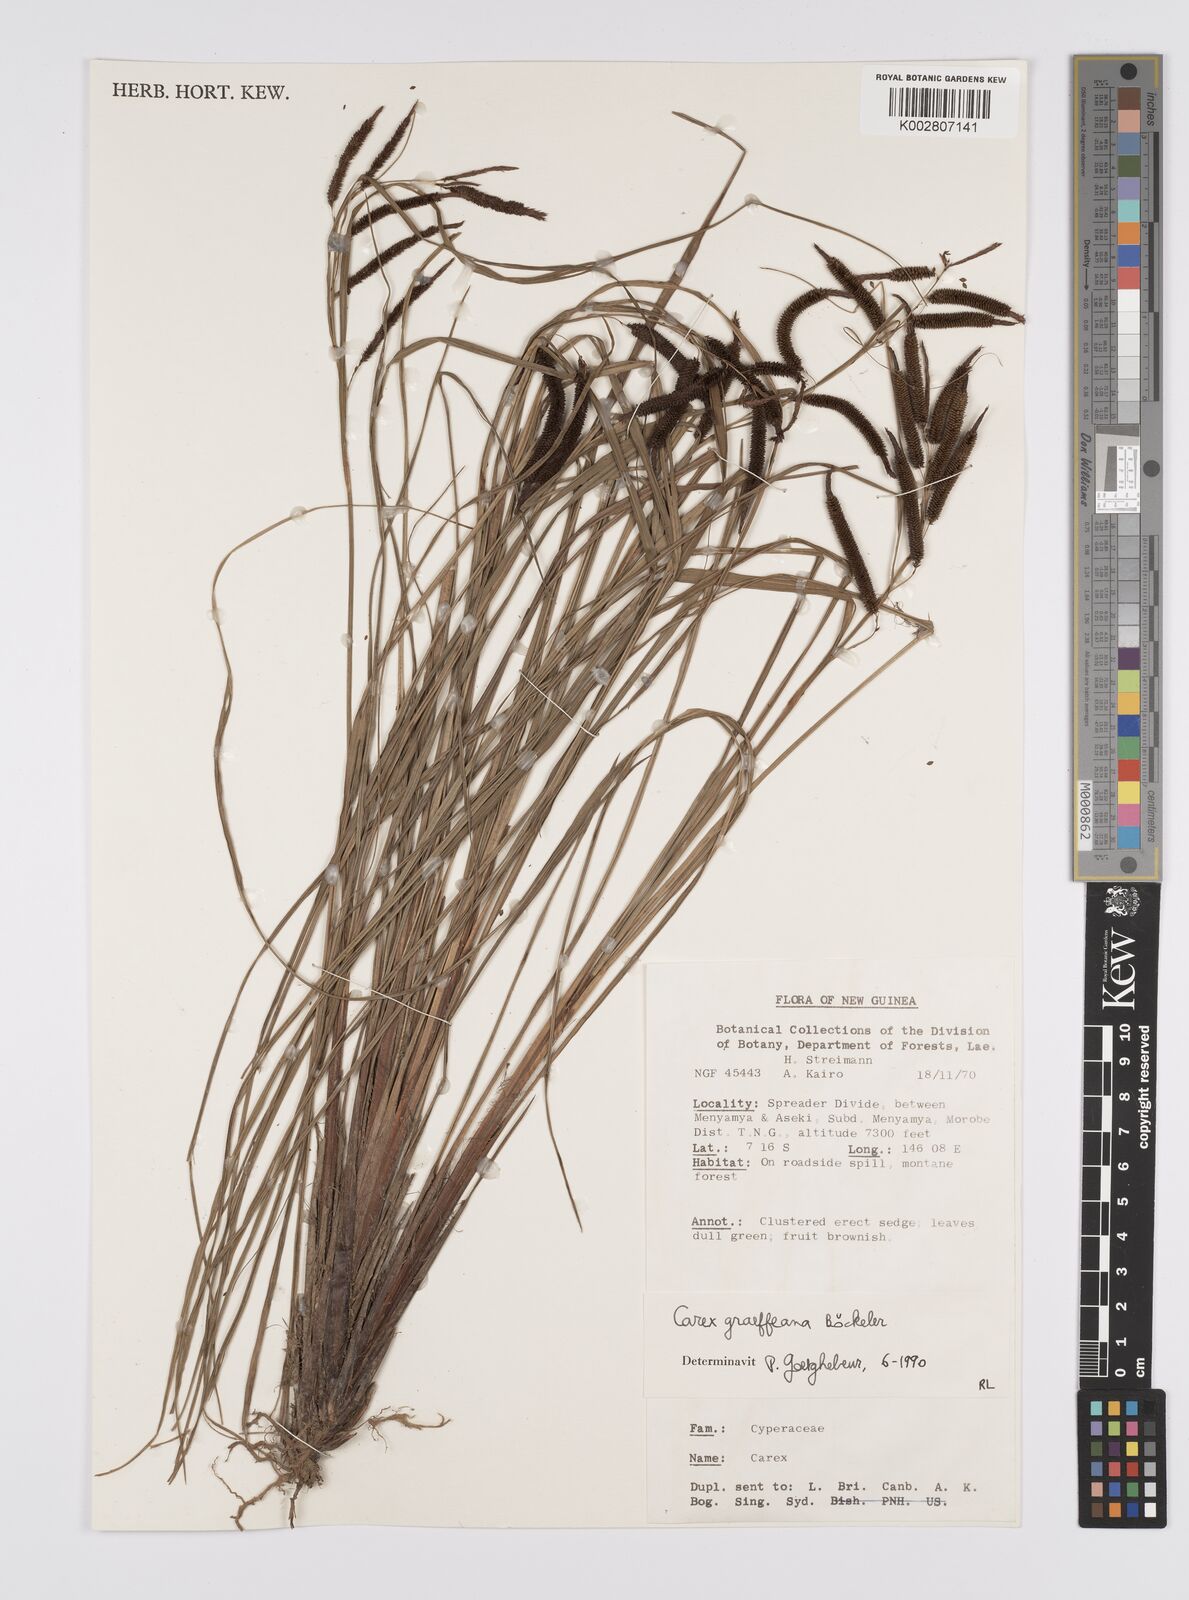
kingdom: Plantae
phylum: Tracheophyta
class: Liliopsida
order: Poales
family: Cyperaceae
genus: Carex
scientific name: Carex graeffeana
